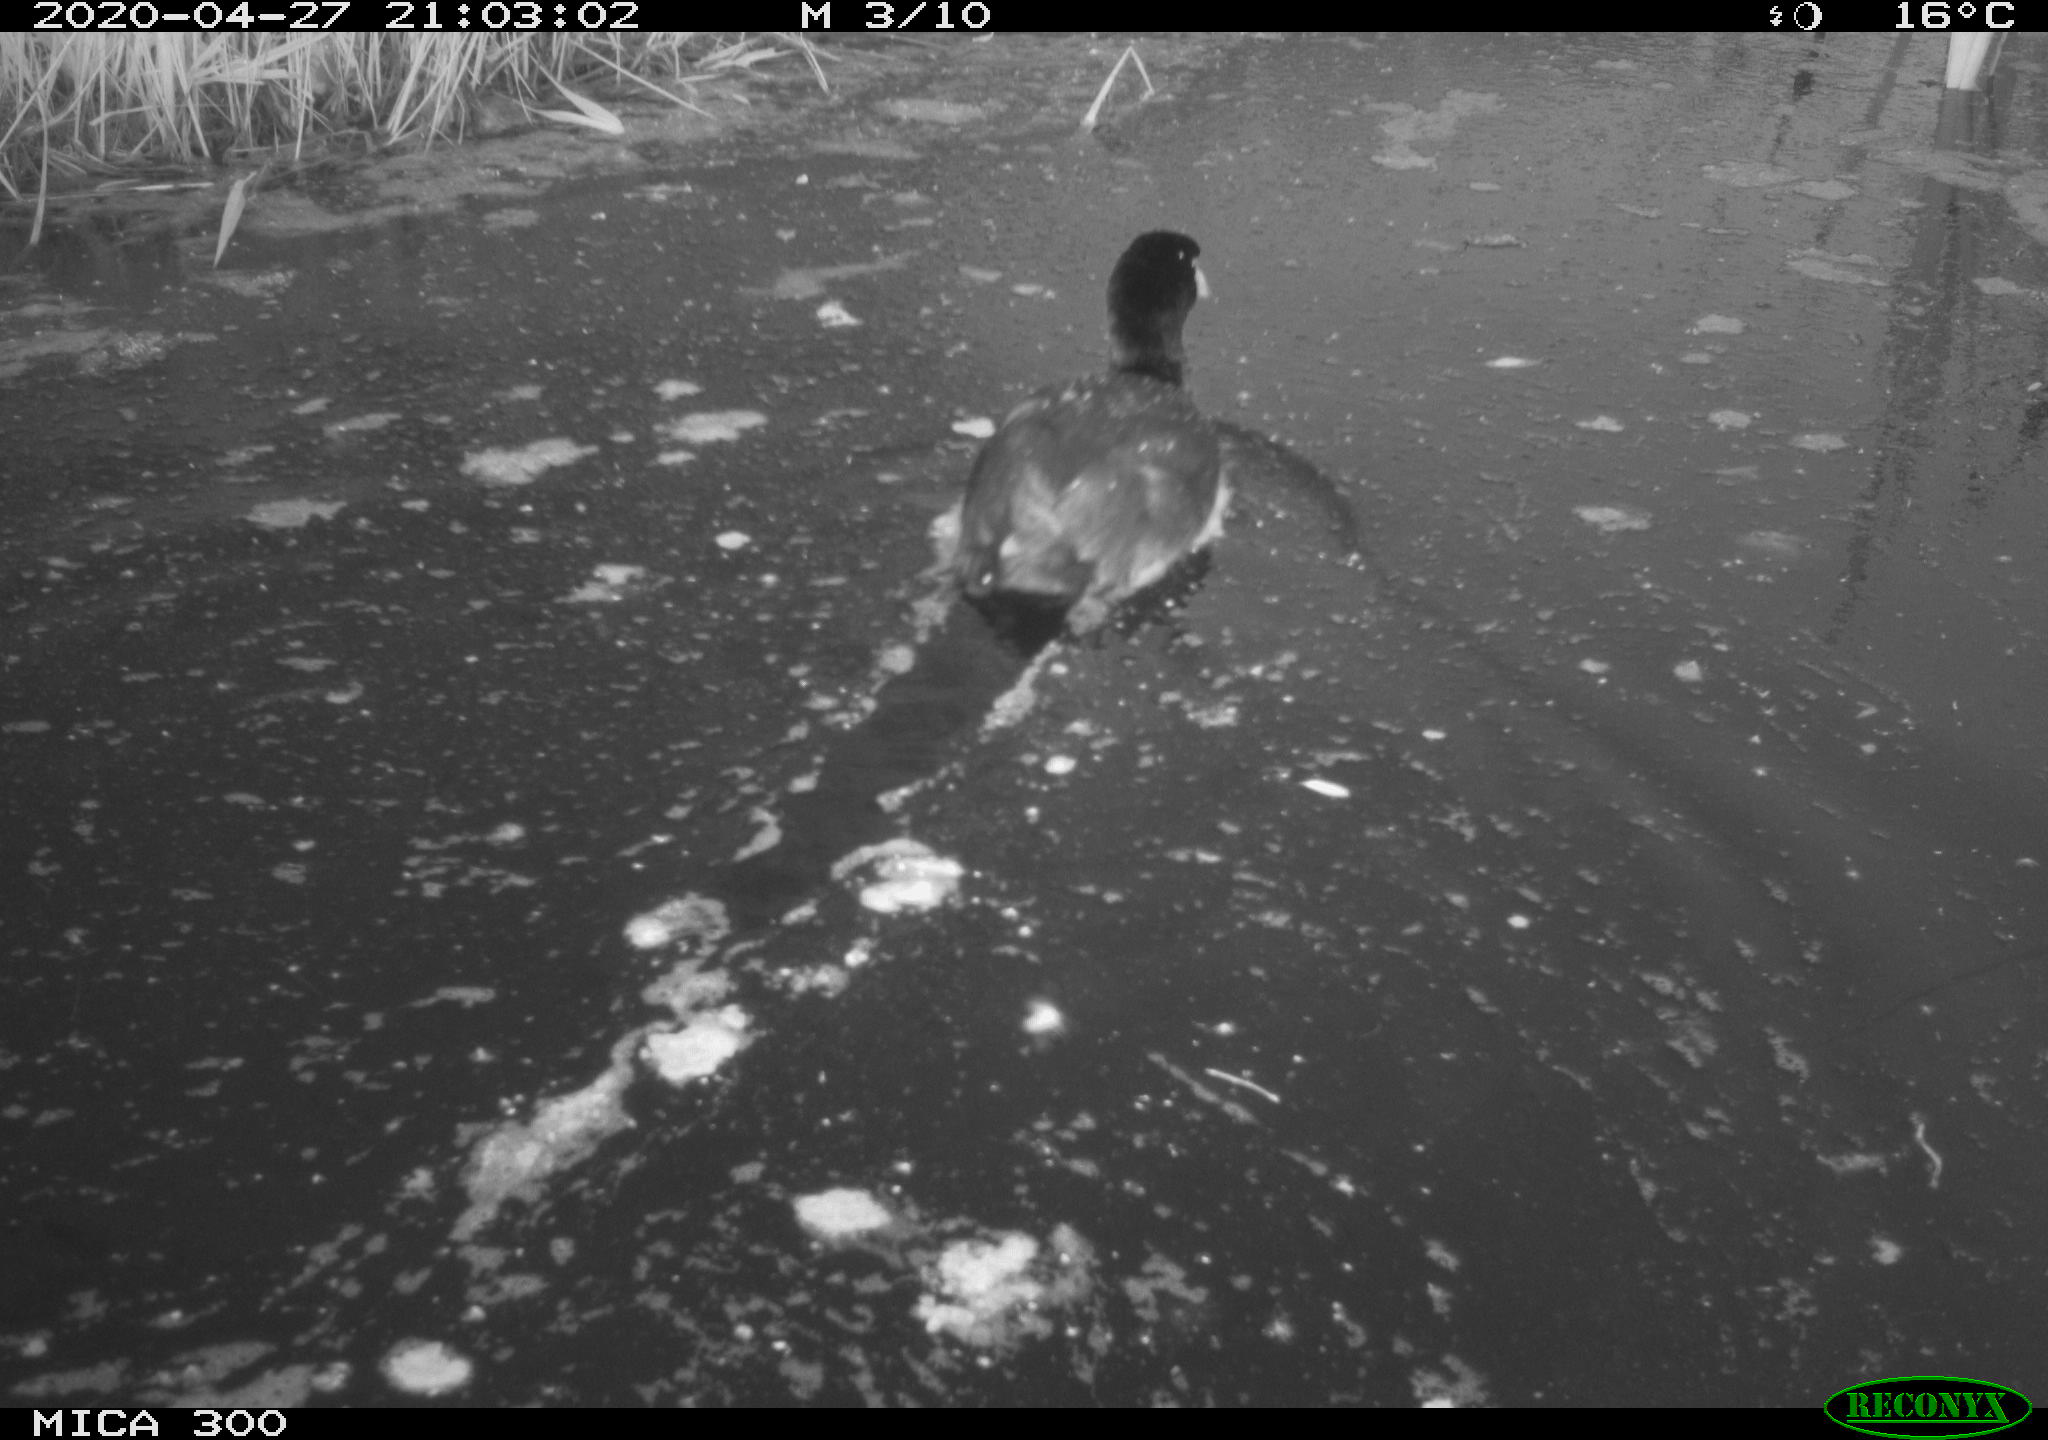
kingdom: Animalia
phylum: Chordata
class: Aves
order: Gruiformes
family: Rallidae
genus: Fulica
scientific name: Fulica atra
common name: Eurasian coot
